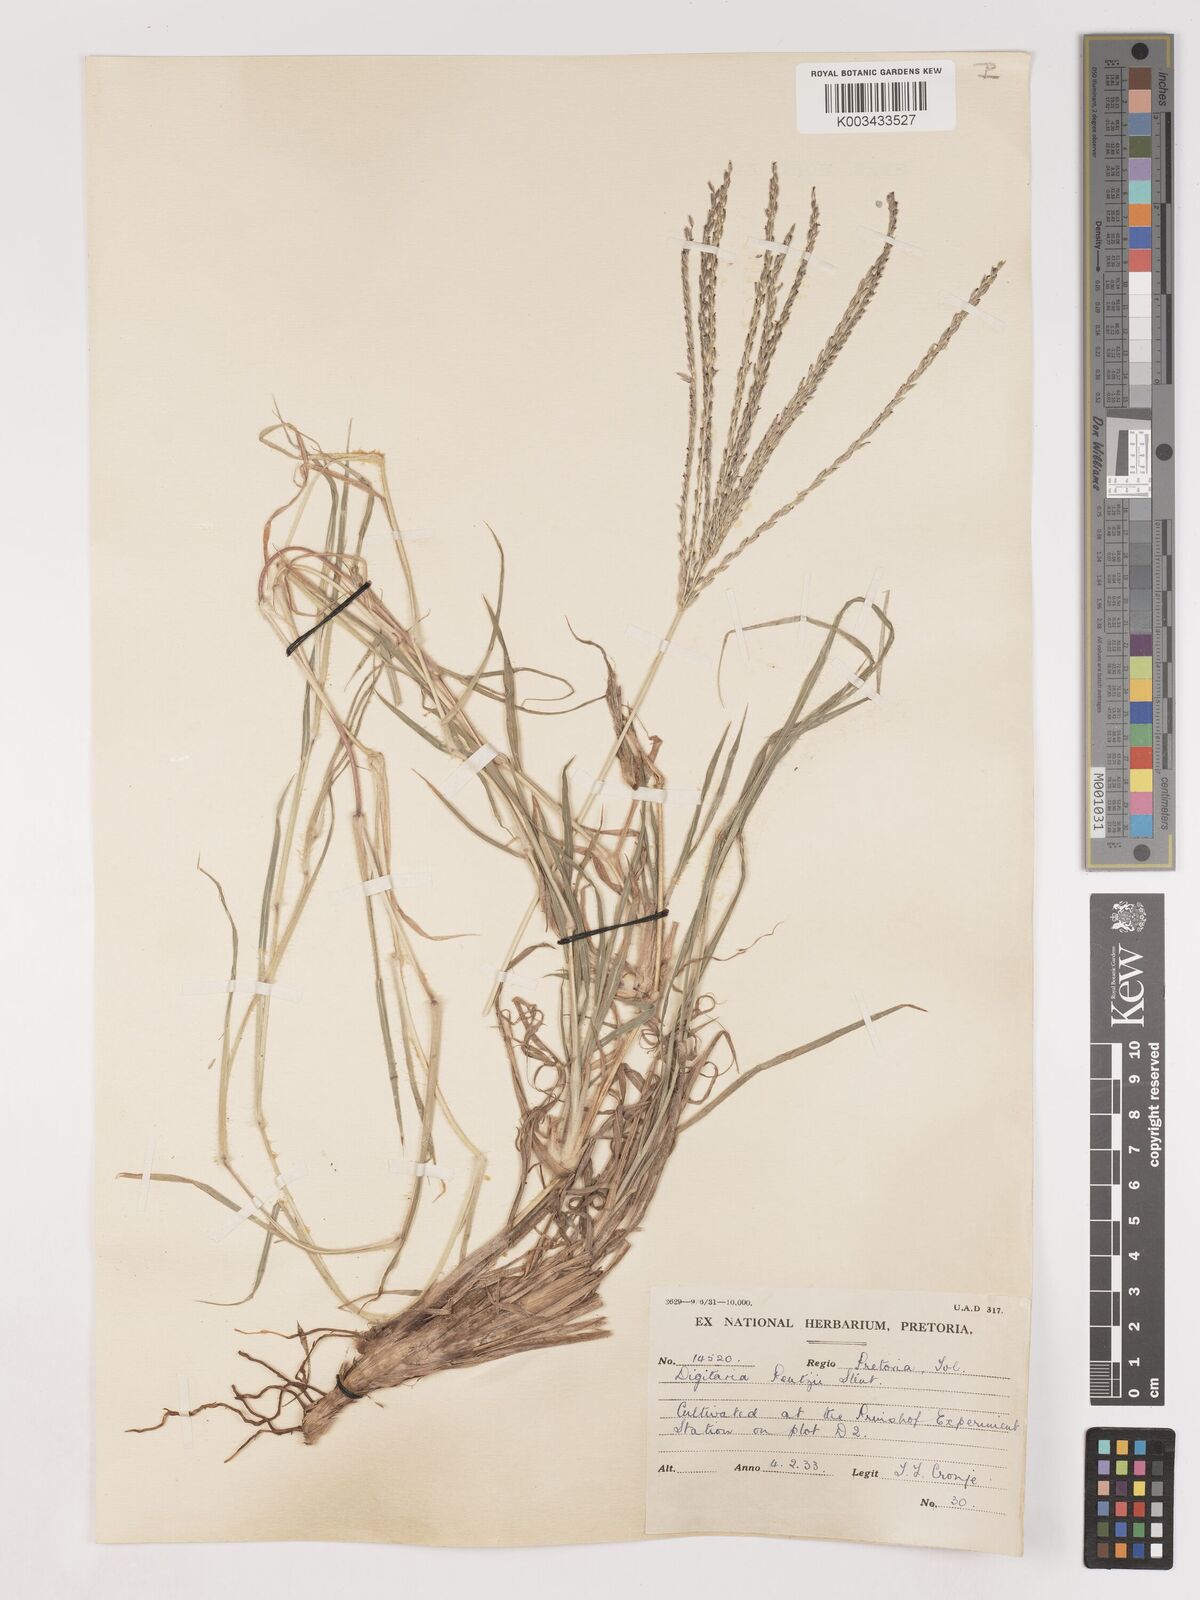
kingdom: Plantae
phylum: Tracheophyta
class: Liliopsida
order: Poales
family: Poaceae
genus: Digitaria
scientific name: Digitaria eriantha
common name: Digitgrass
